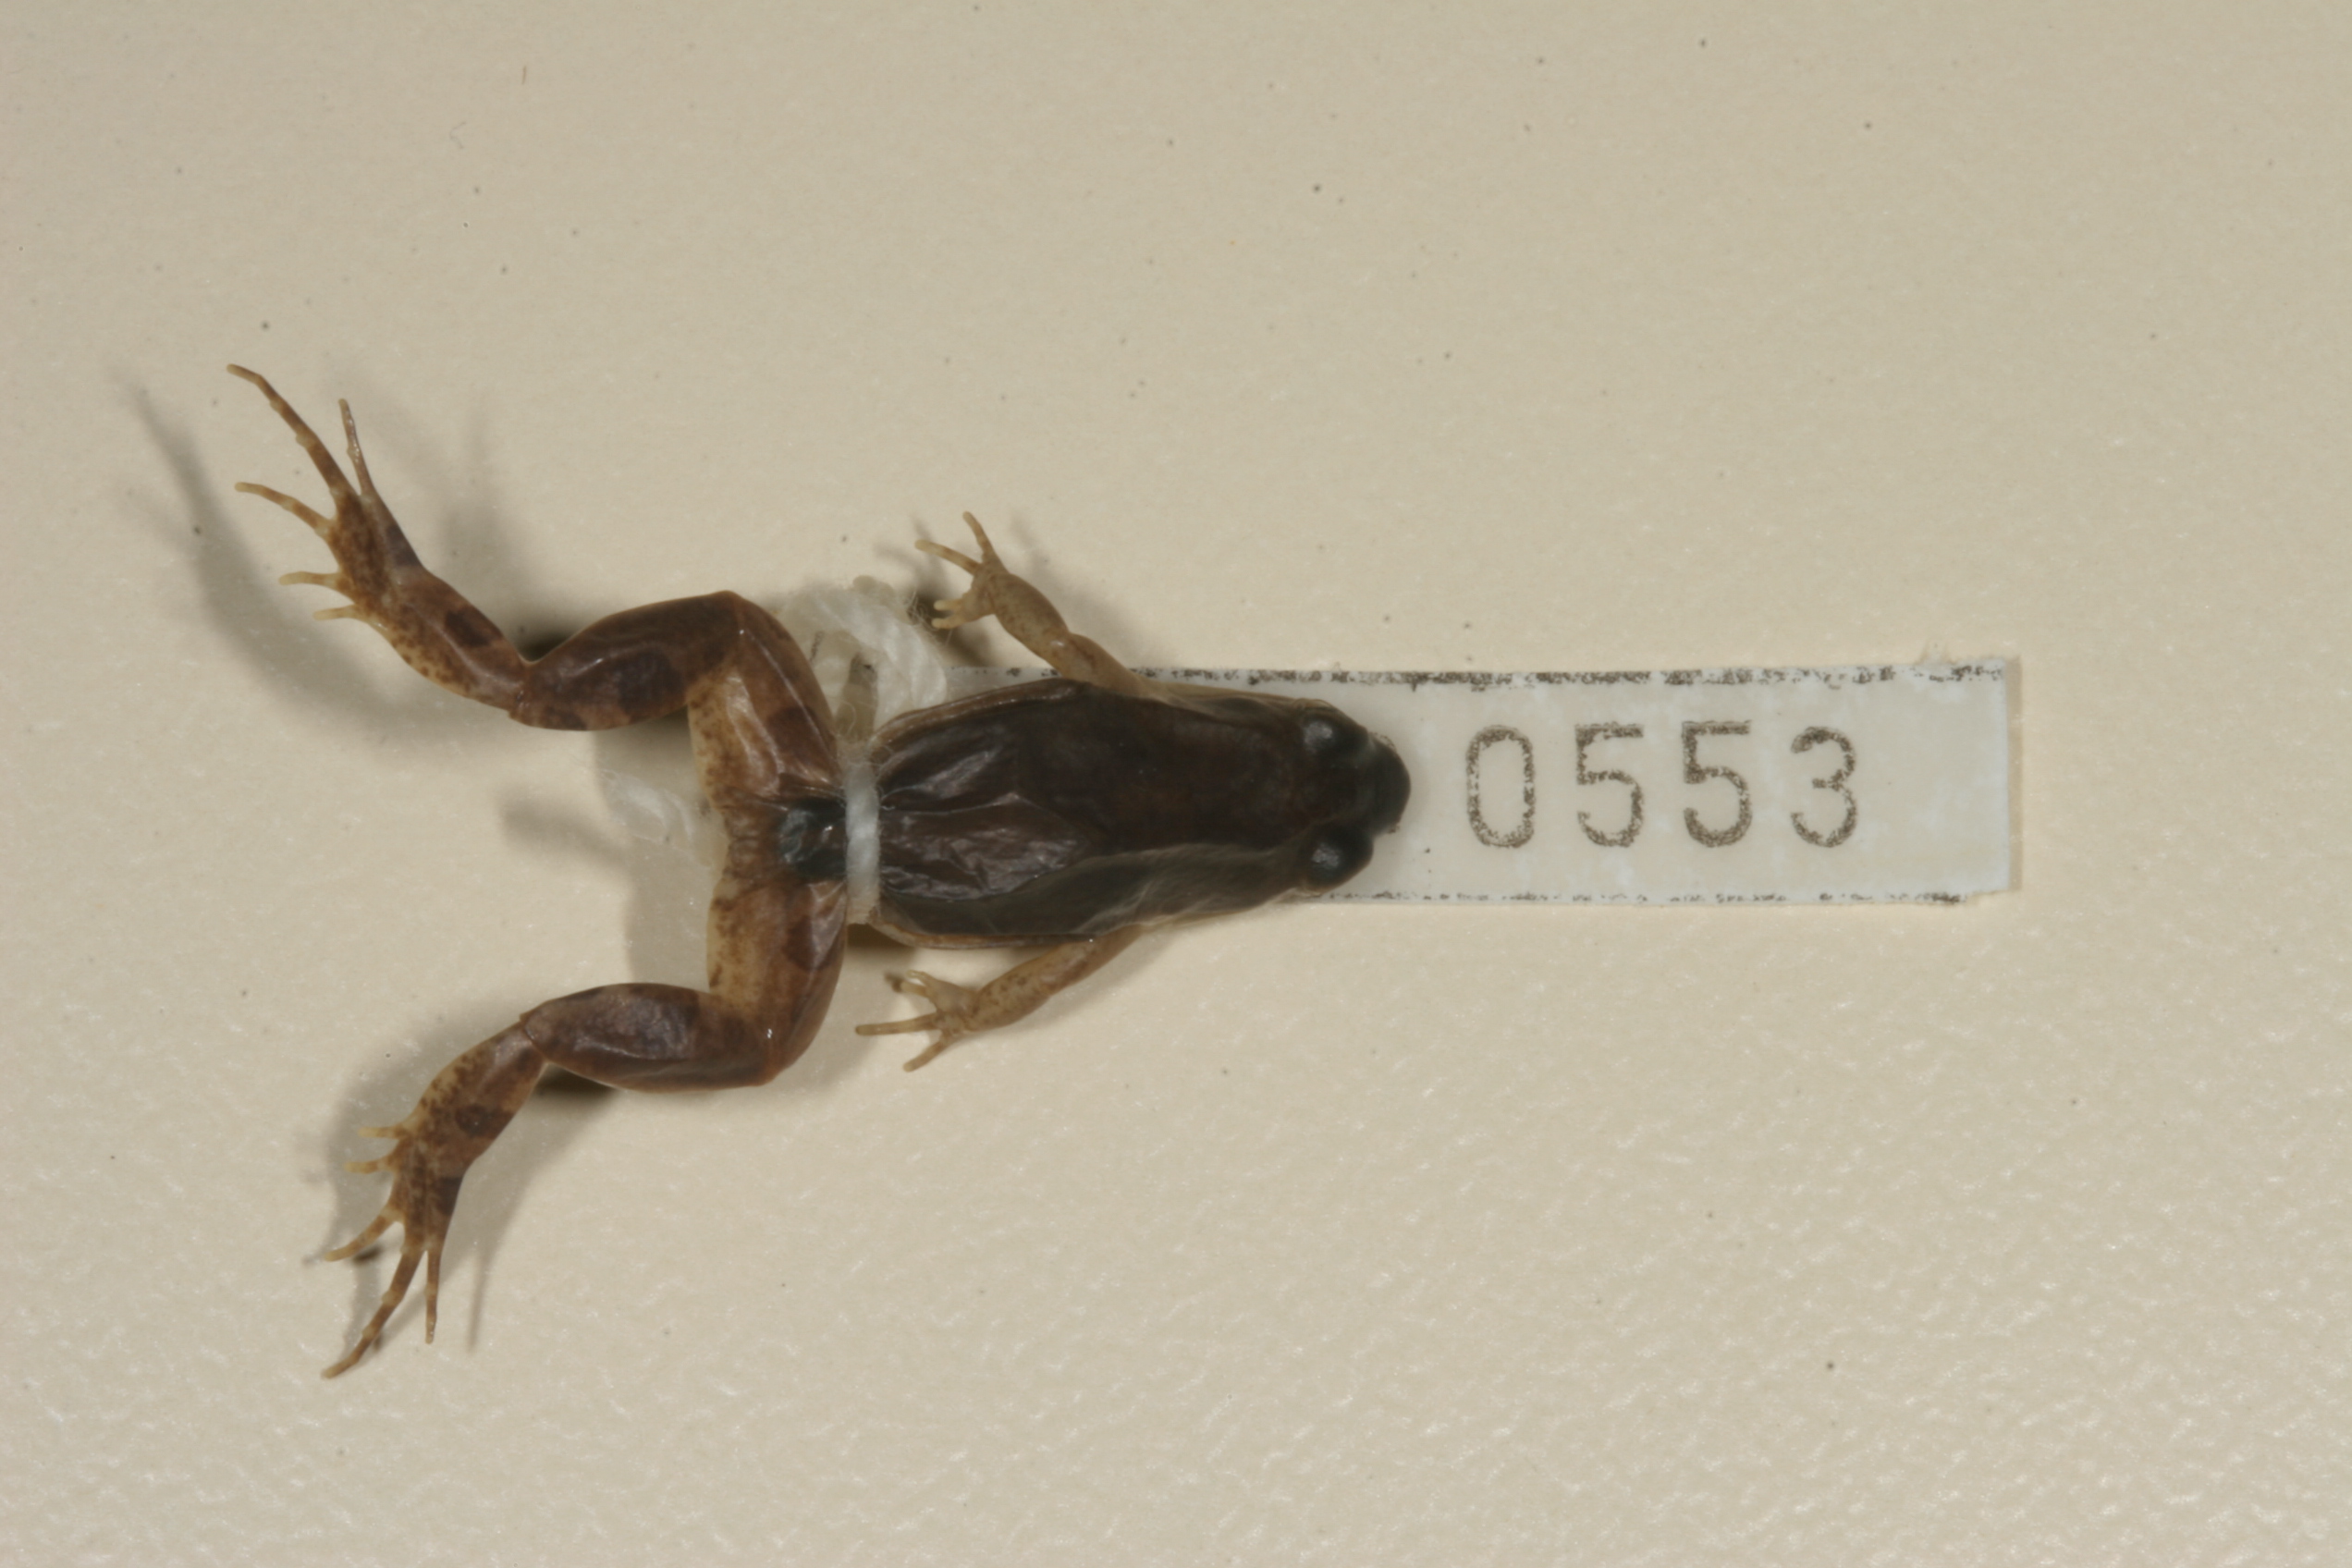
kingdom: Animalia
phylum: Chordata
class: Amphibia
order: Anura
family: Pyxicephalidae
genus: Cacosternum
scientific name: Cacosternum boettgeri
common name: Boettger's frog
